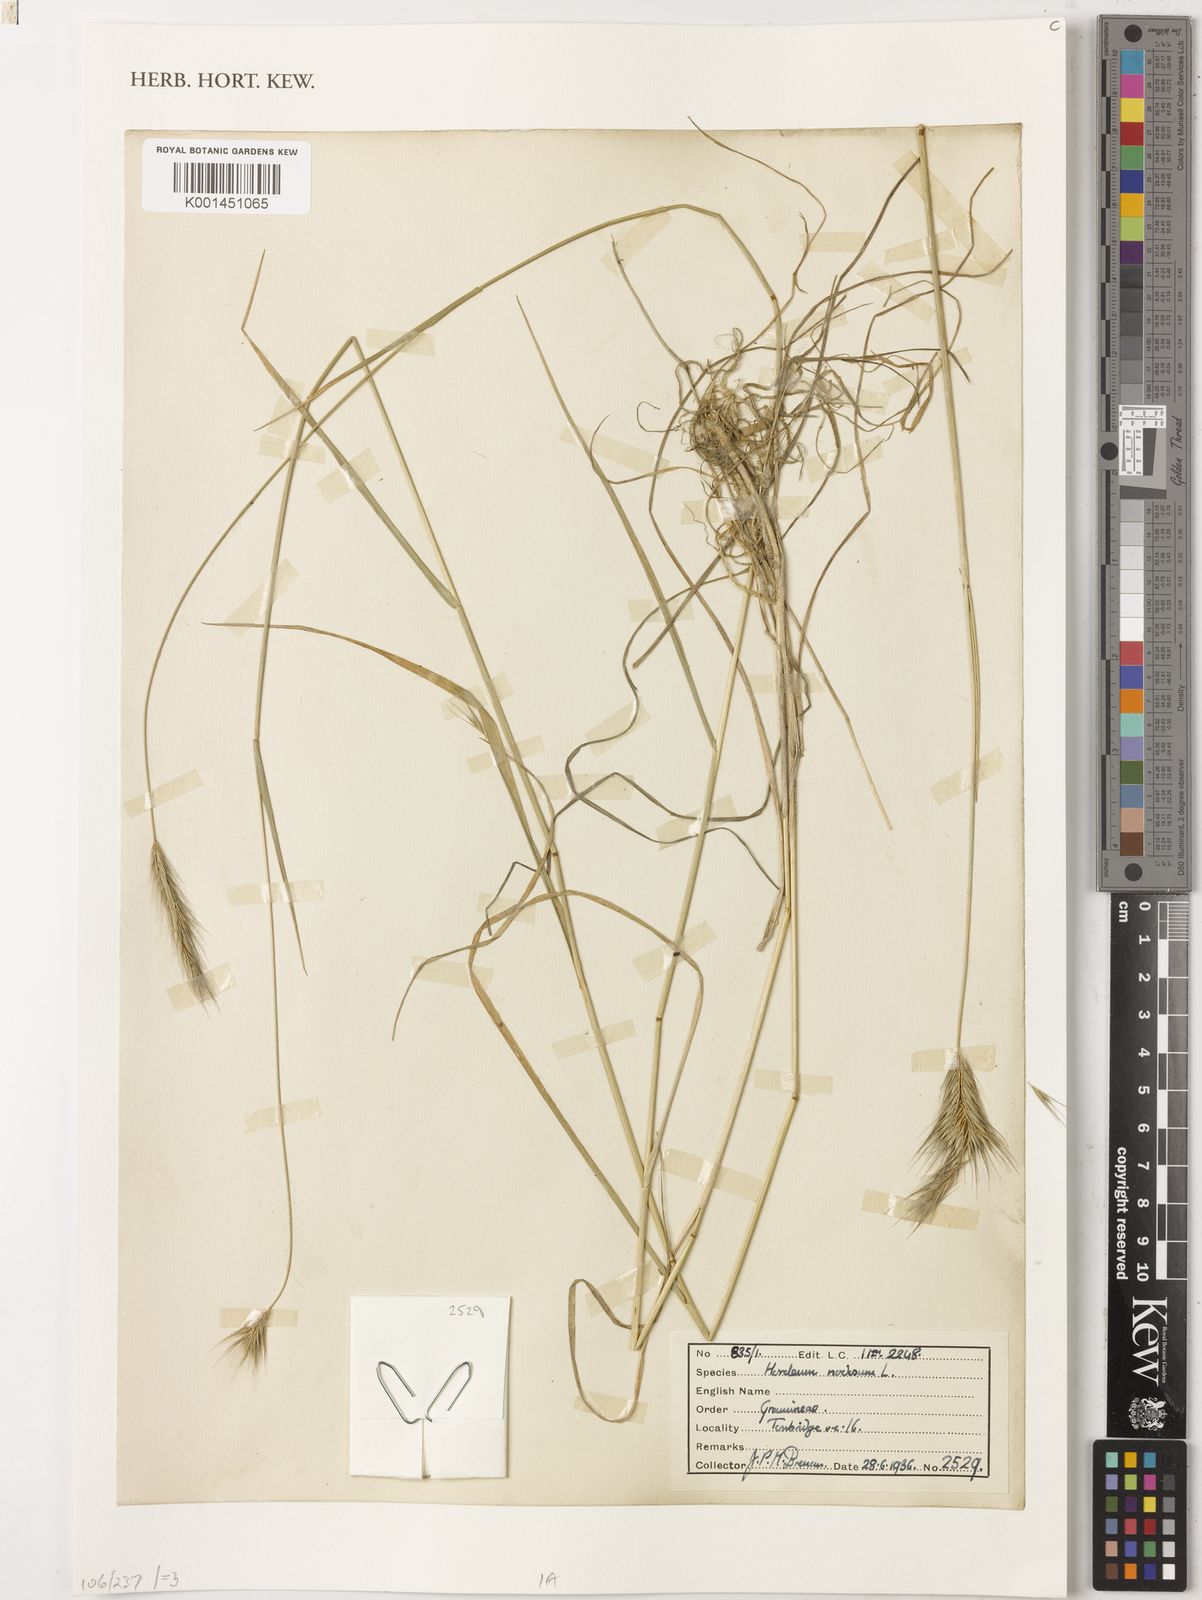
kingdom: Plantae
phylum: Tracheophyta
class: Liliopsida
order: Poales
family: Poaceae
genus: Hordeum
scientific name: Hordeum bulbosum
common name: Bulbous barley
